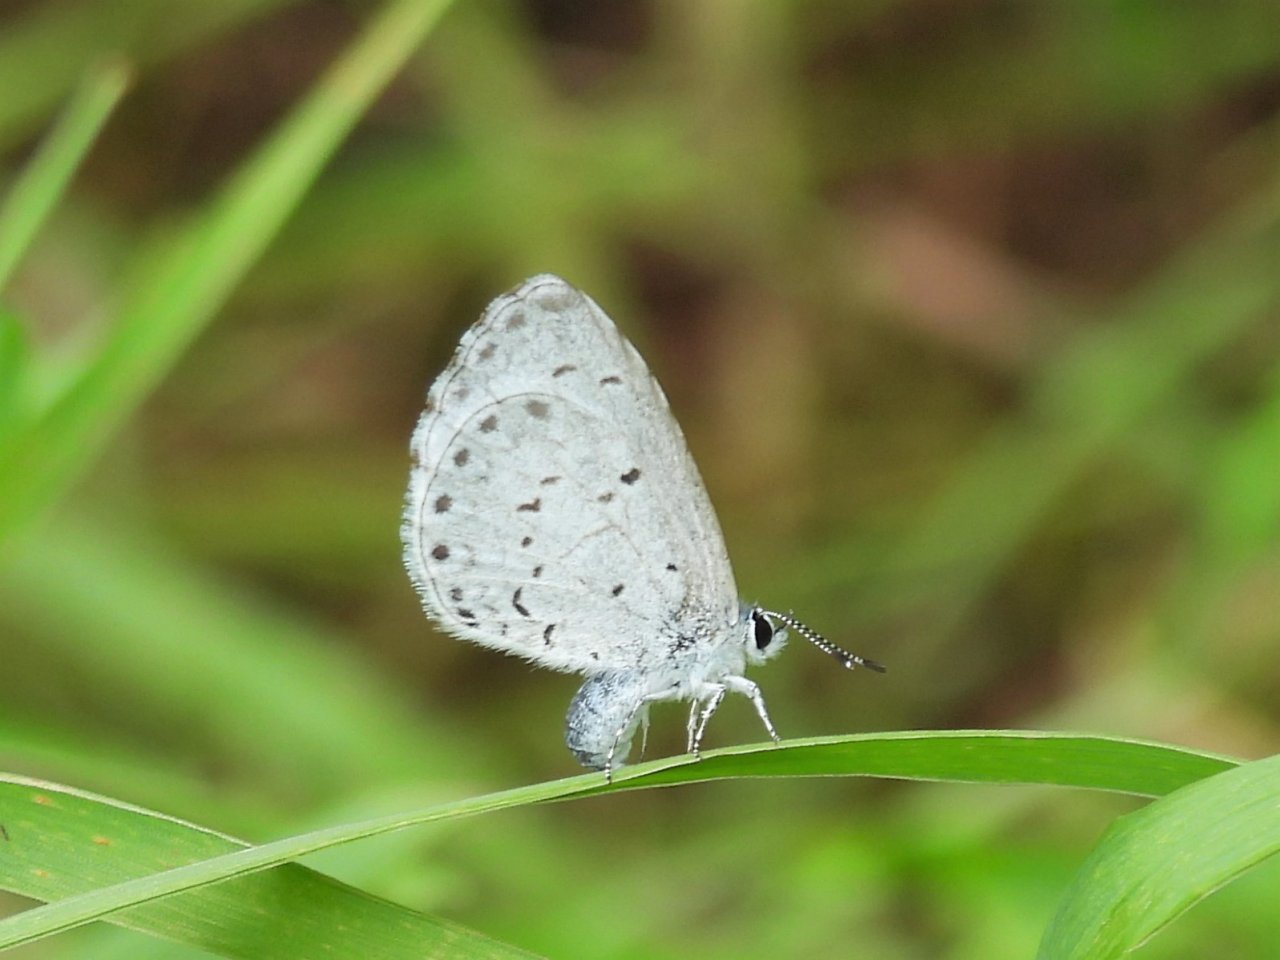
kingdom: Animalia
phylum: Arthropoda
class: Insecta
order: Lepidoptera
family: Lycaenidae
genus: Cyaniris
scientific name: Cyaniris neglecta
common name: Summer Azure
